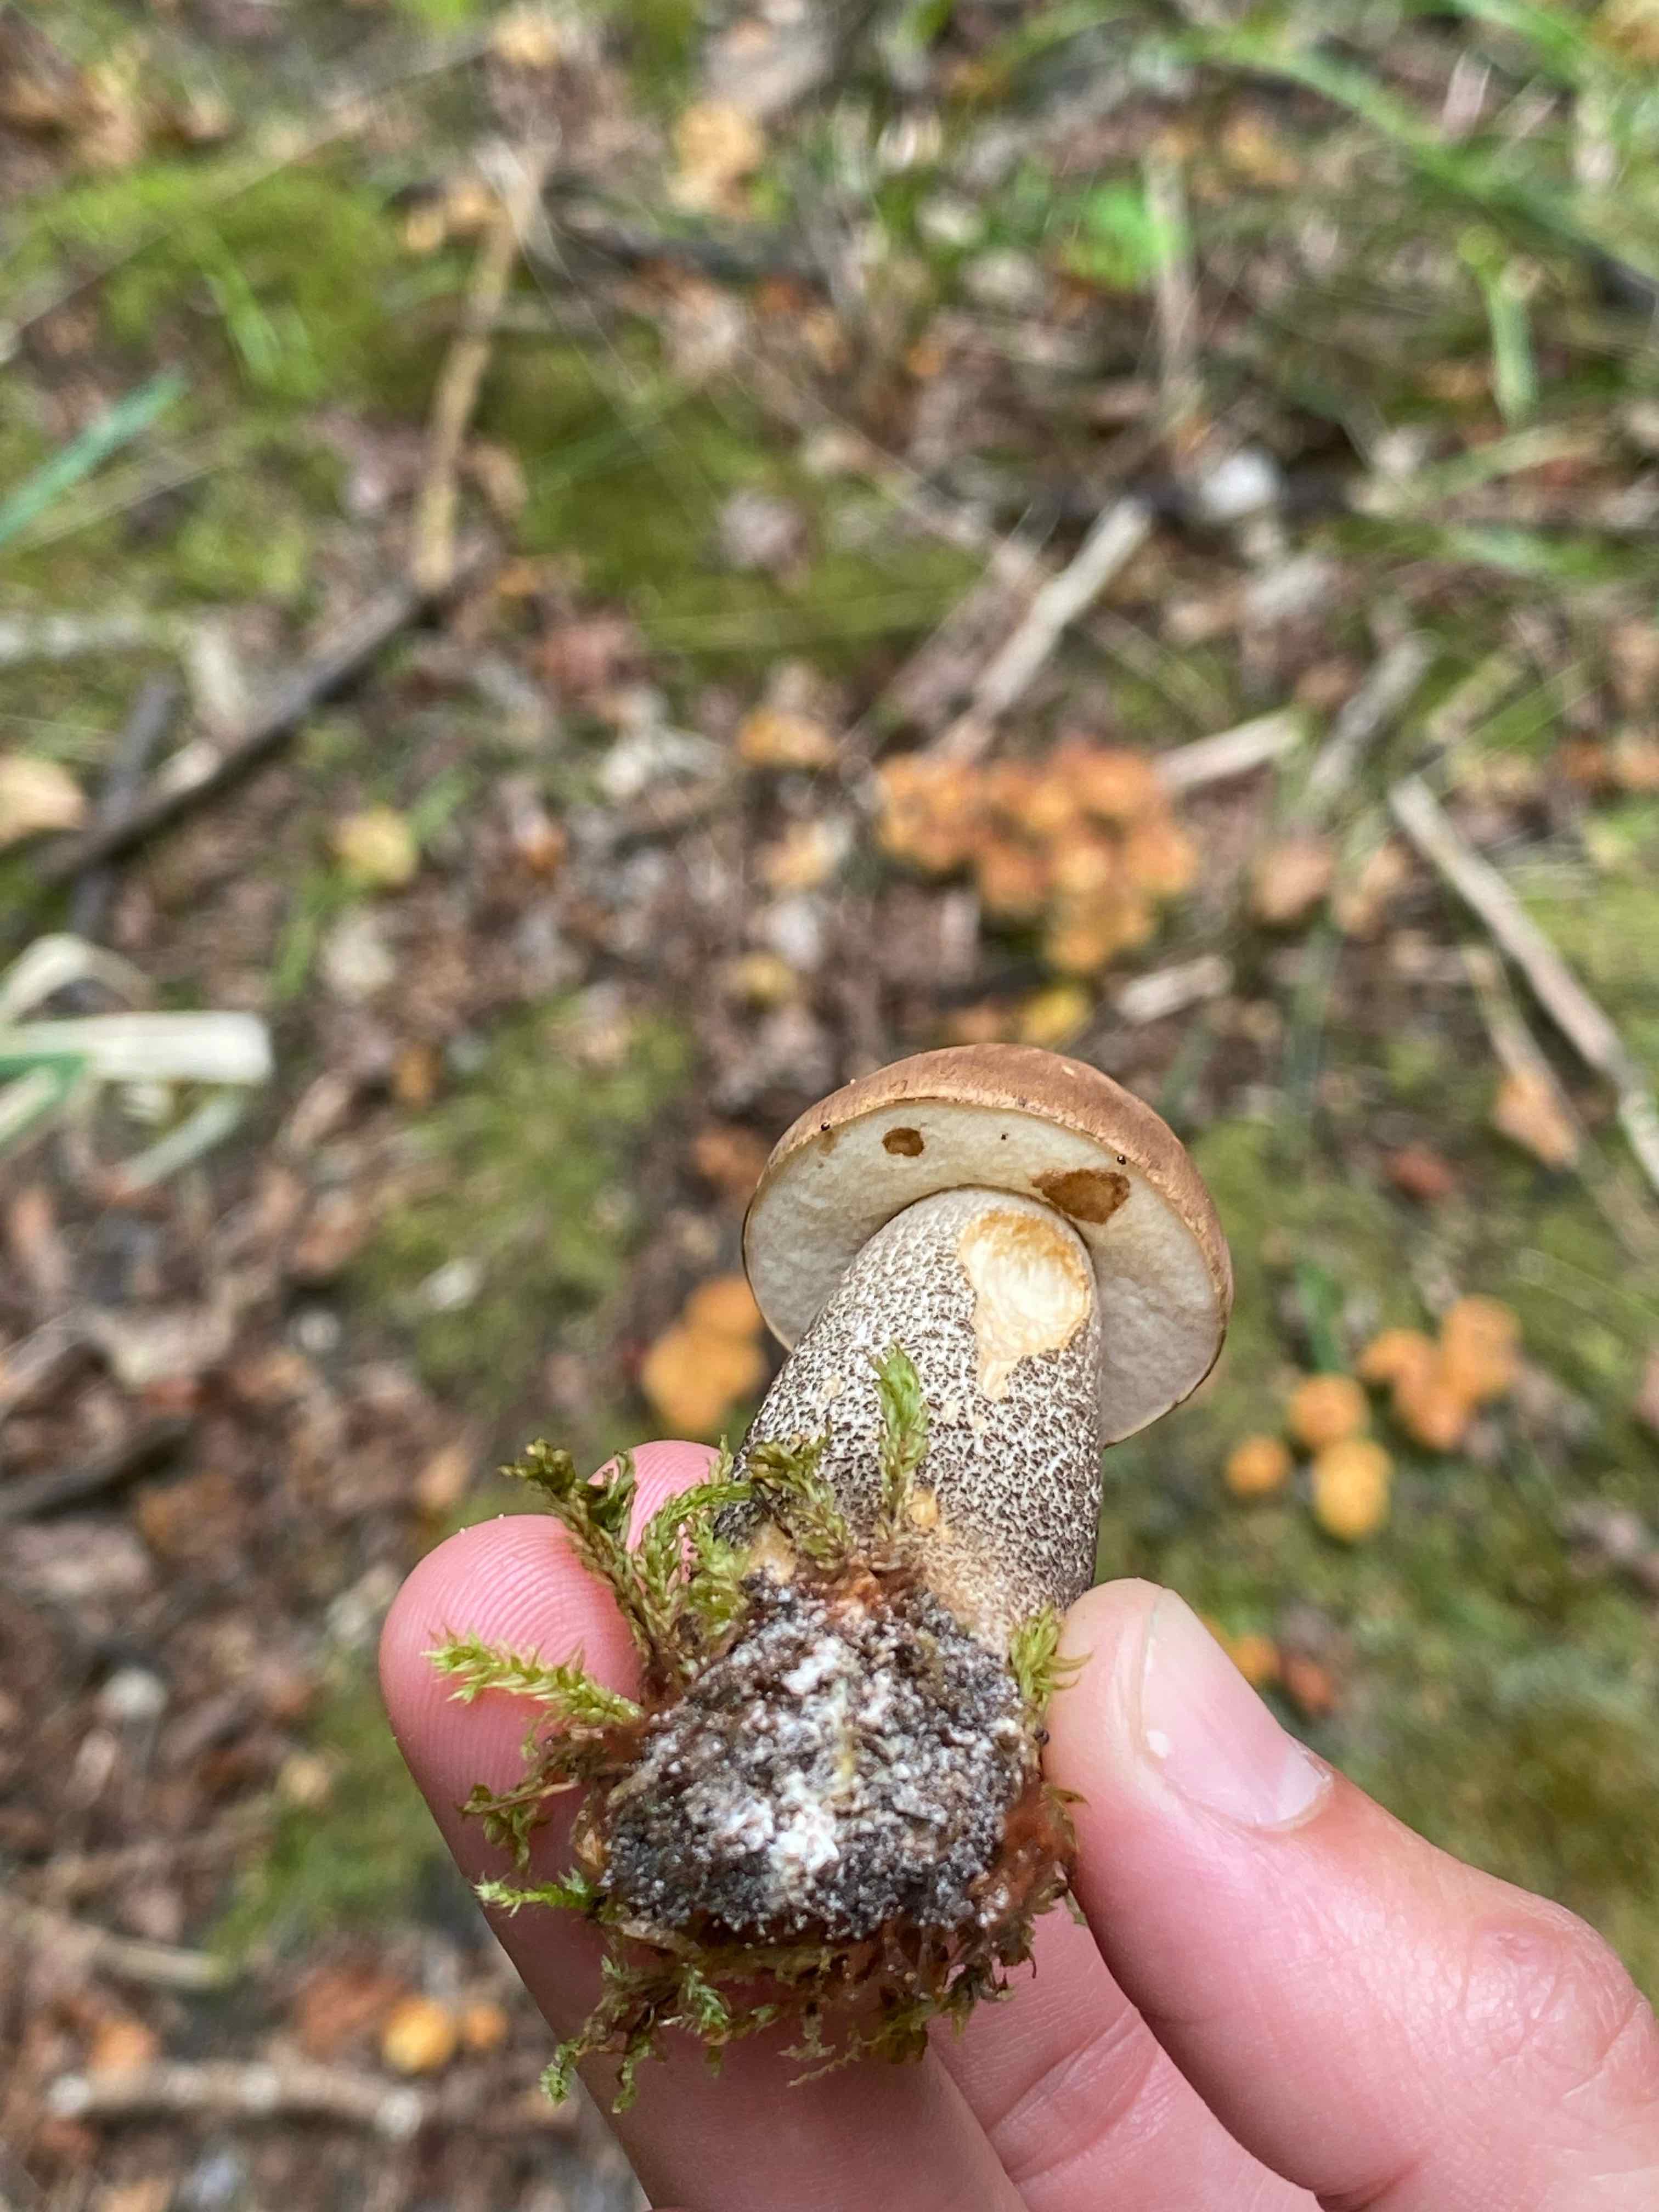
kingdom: Fungi
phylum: Basidiomycota
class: Agaricomycetes
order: Boletales
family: Boletaceae
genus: Leccinum
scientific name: Leccinum
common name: skælrørhat
